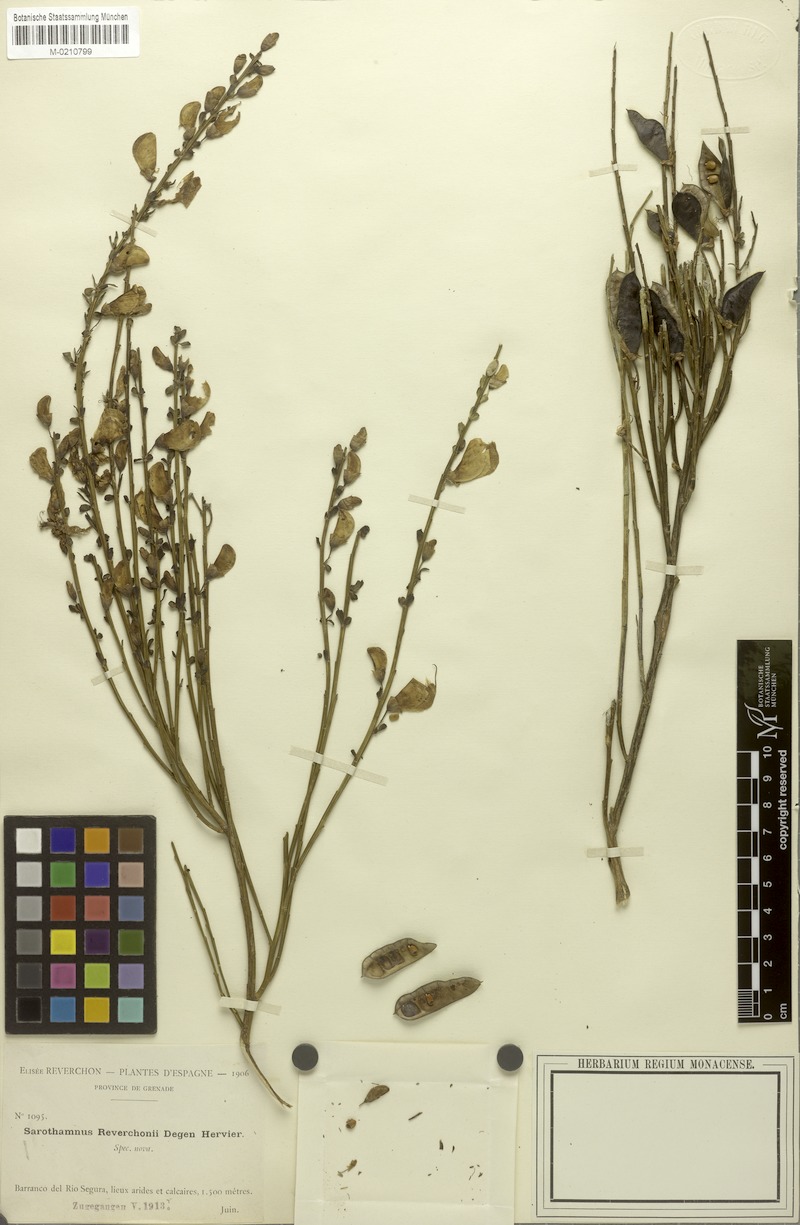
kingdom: Plantae
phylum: Tracheophyta
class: Magnoliopsida
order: Fabales
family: Fabaceae
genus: Cytisus
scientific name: Cytisus scoparius
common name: Scotch broom
